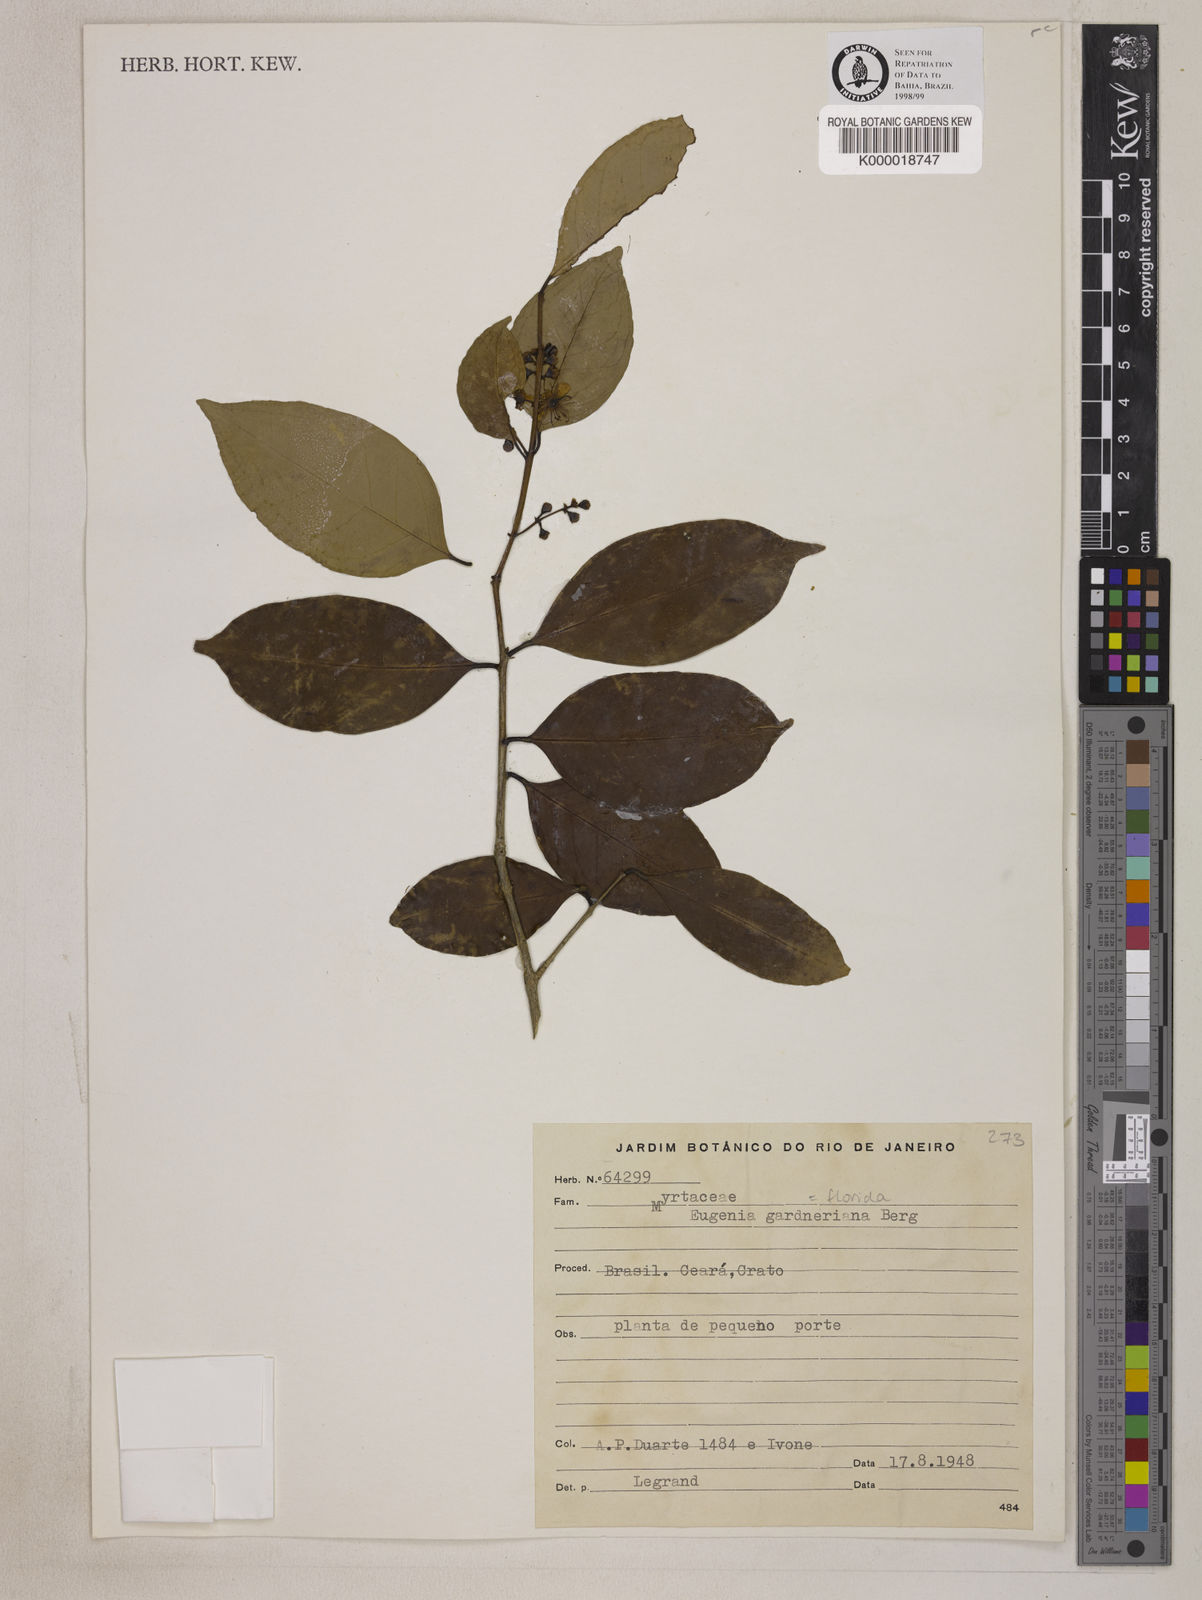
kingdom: Plantae
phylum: Tracheophyta
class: Magnoliopsida
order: Myrtales
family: Myrtaceae
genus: Eugenia
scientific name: Eugenia florida
